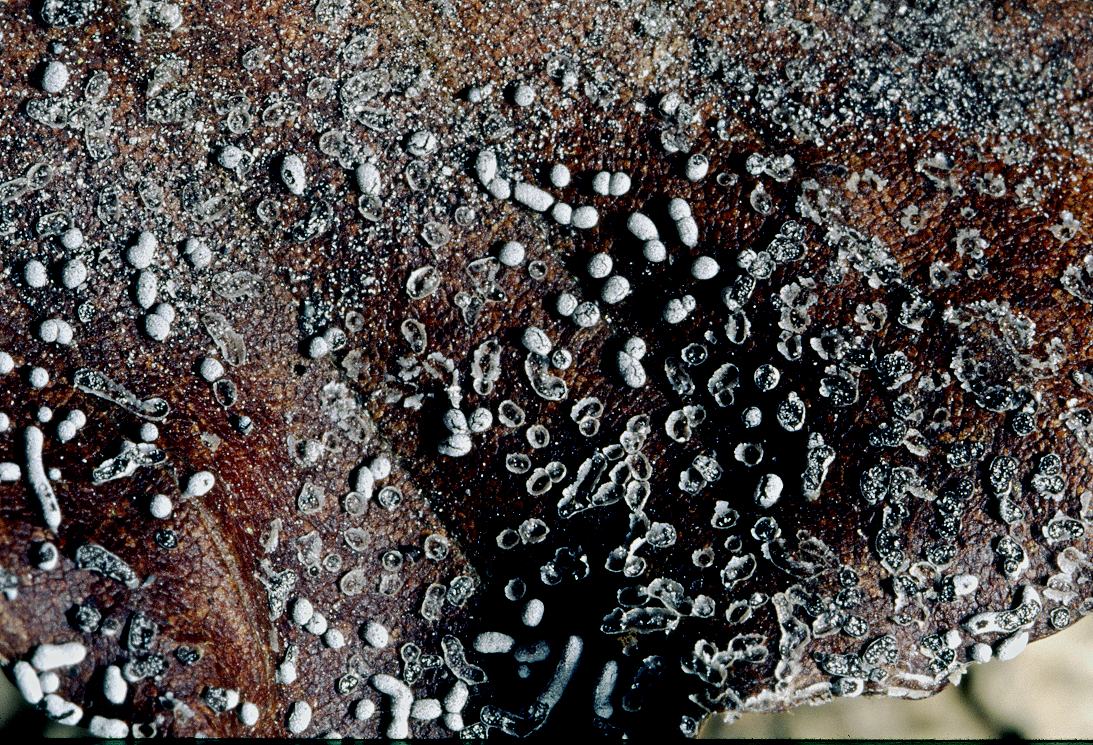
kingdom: Protozoa
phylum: Mycetozoa
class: Myxomycetes
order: Physarales
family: Physaraceae
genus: Physarum
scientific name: Physarum cinereum
